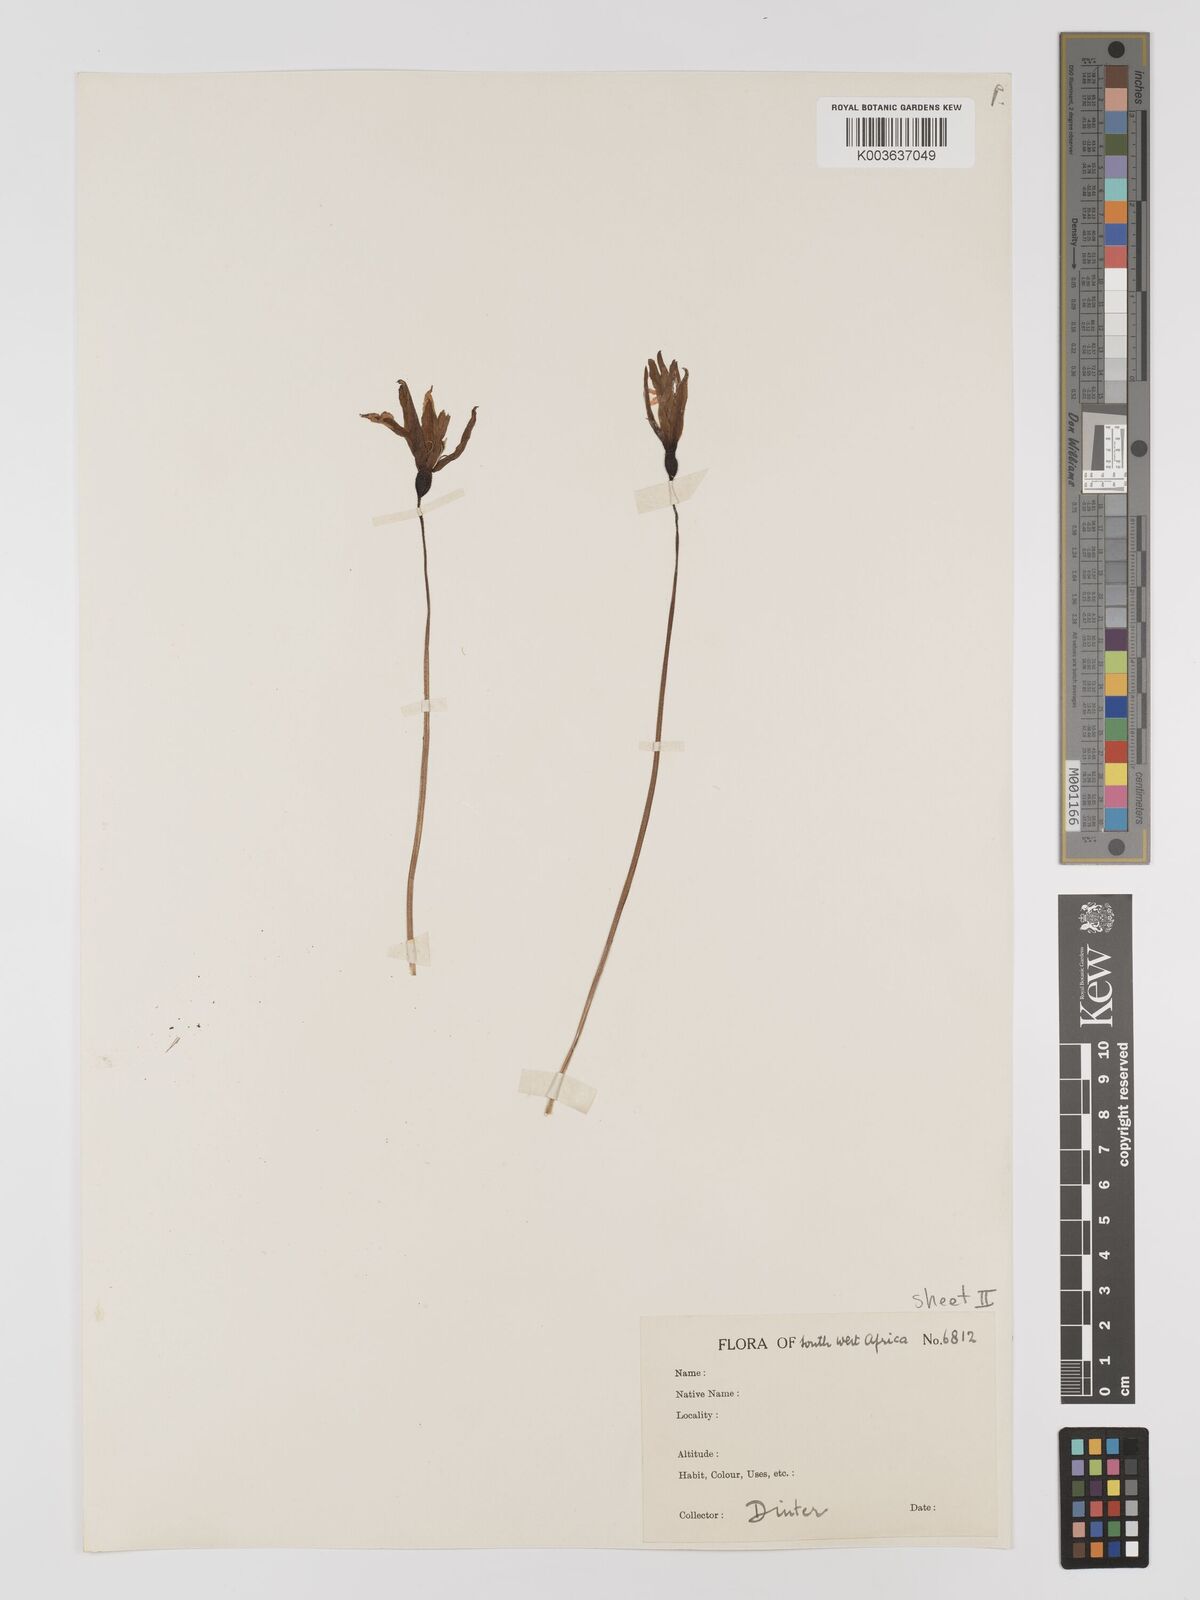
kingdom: Plantae
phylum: Tracheophyta
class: Liliopsida
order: Pandanales
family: Velloziaceae
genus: Xerophyta
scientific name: Xerophyta rosea
